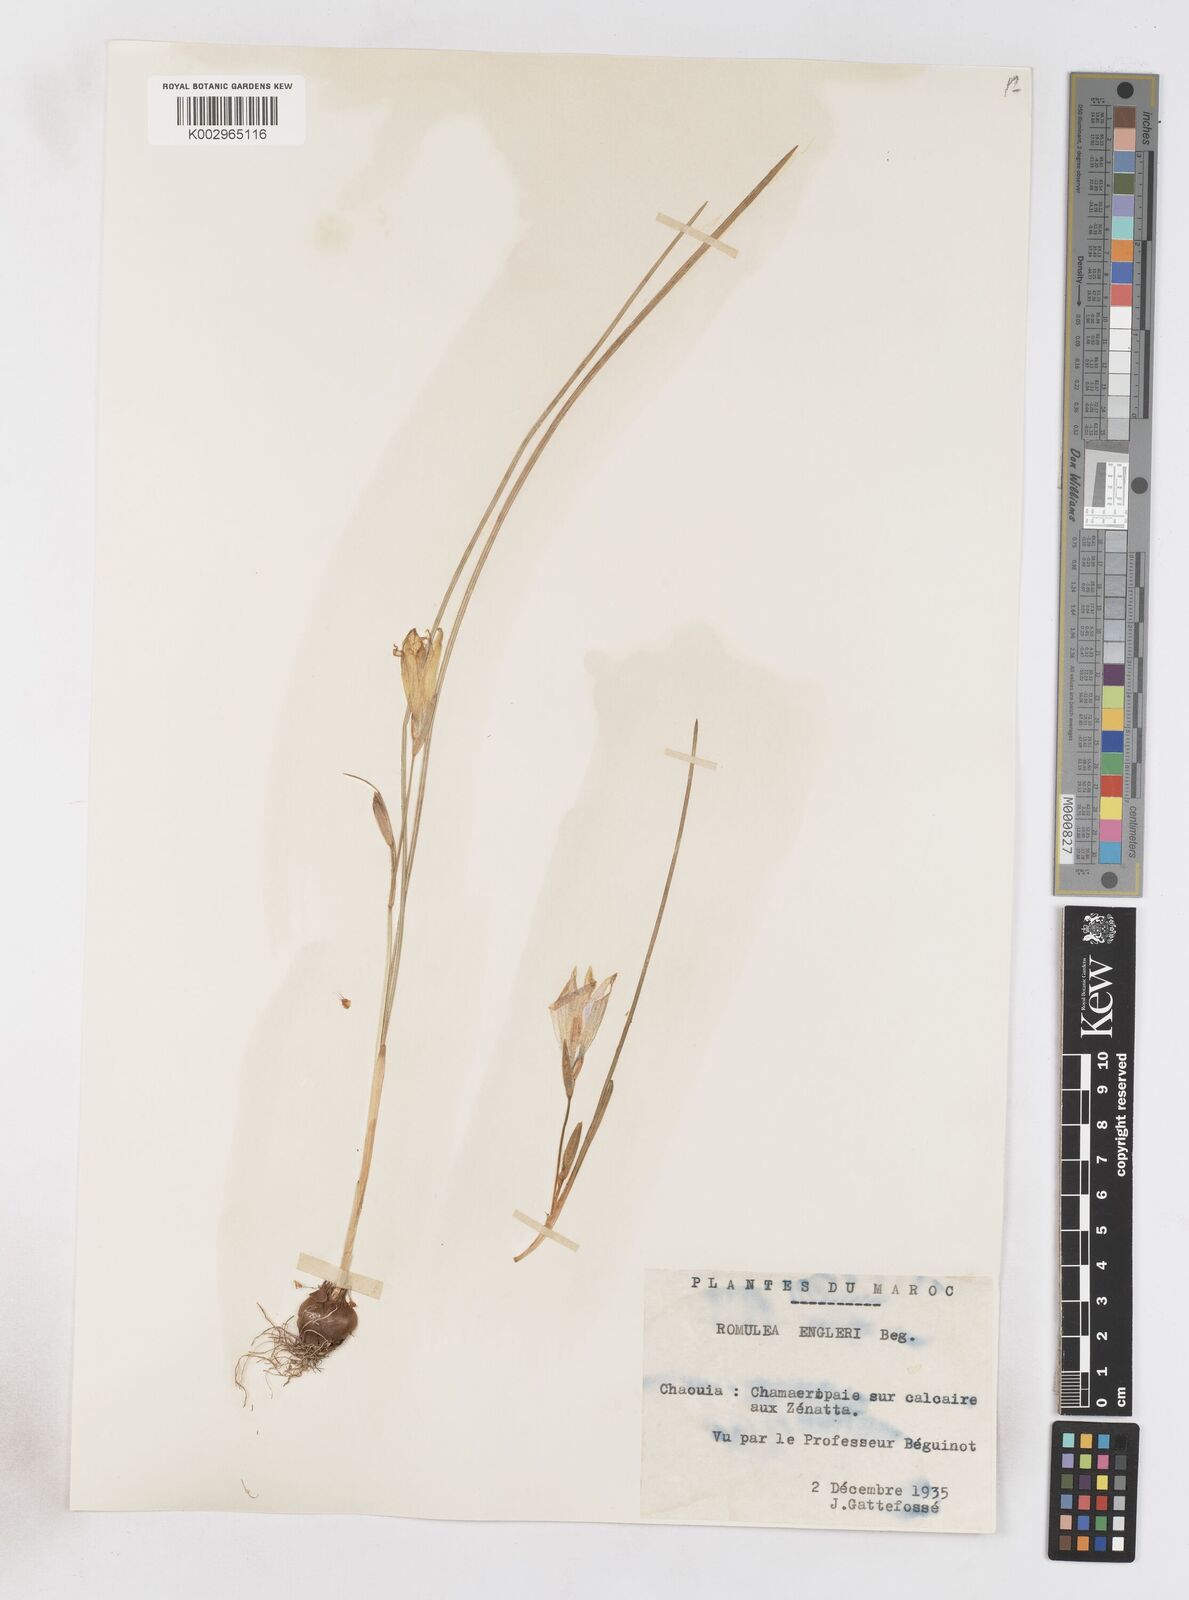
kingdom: Plantae
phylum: Tracheophyta
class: Liliopsida
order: Asparagales
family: Iridaceae
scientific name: Iridaceae
